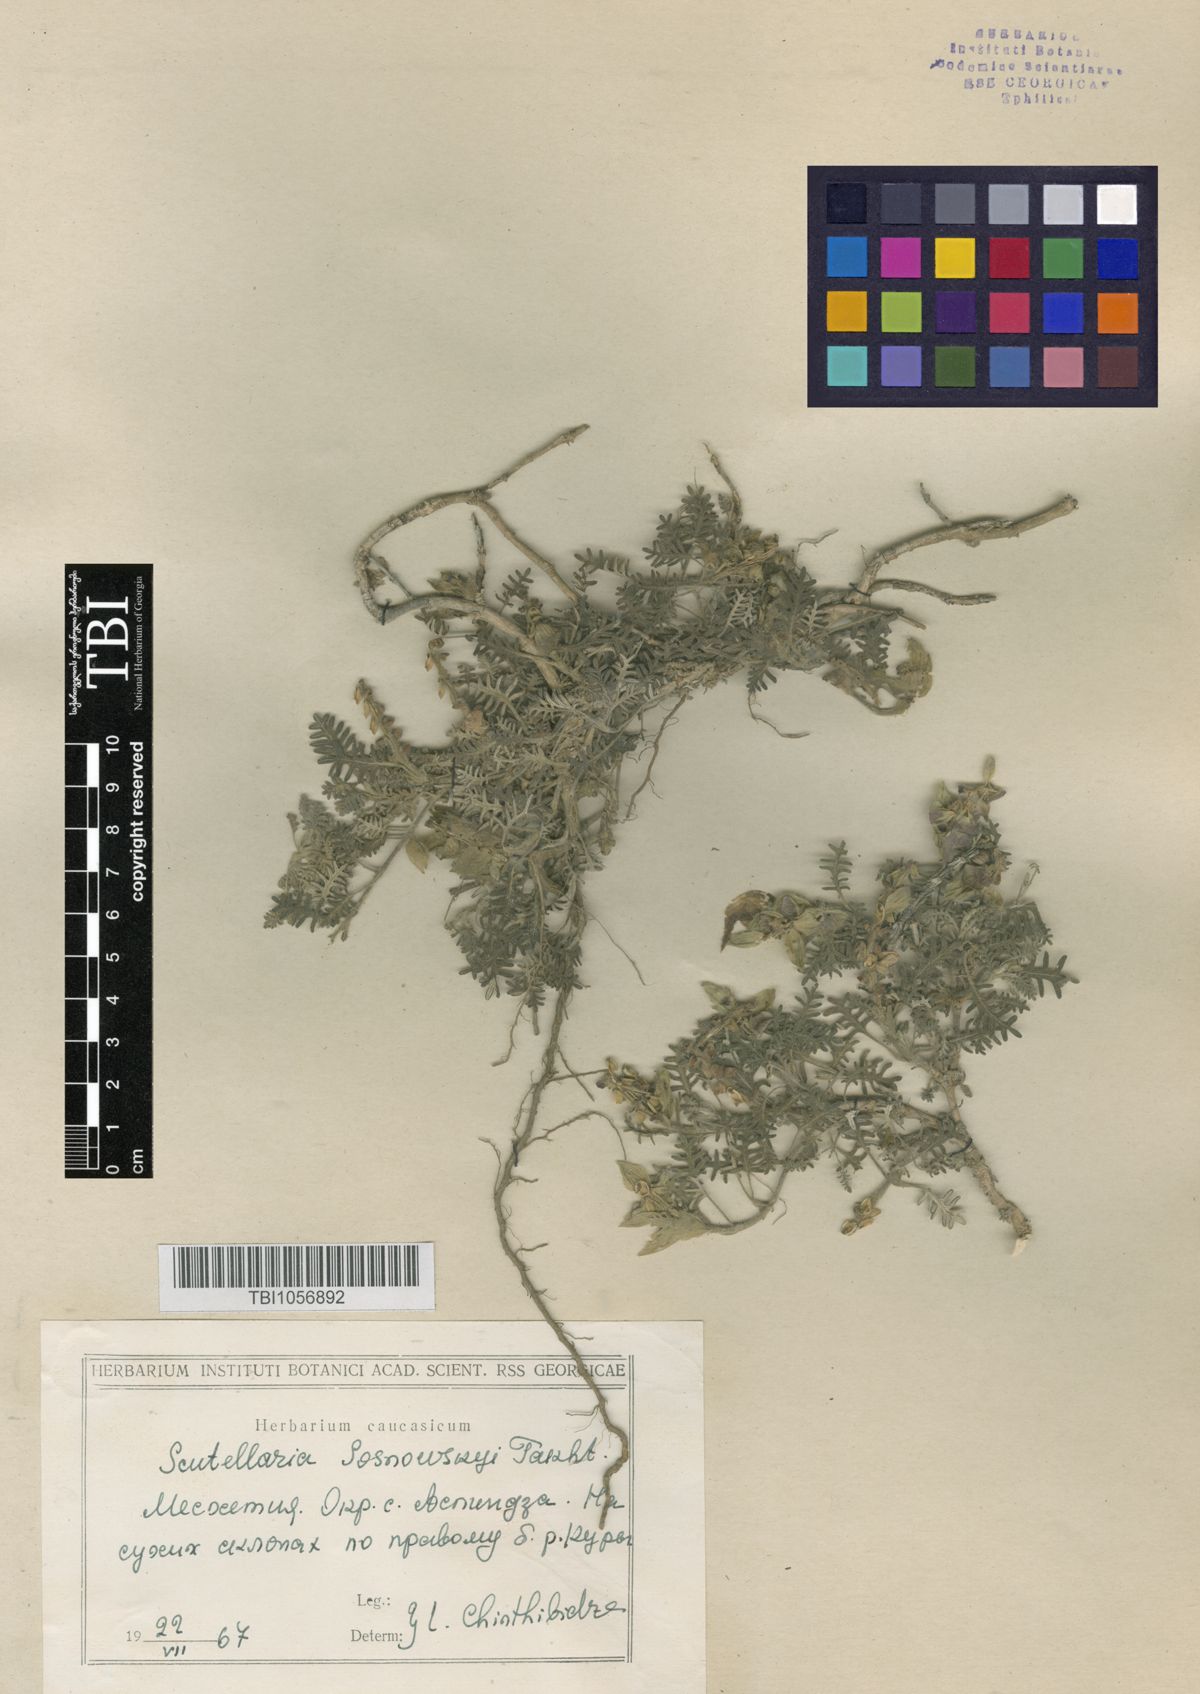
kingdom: Plantae
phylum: Tracheophyta
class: Magnoliopsida
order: Lamiales
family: Lamiaceae
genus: Scutellaria
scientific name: Scutellaria sosnowskyi
